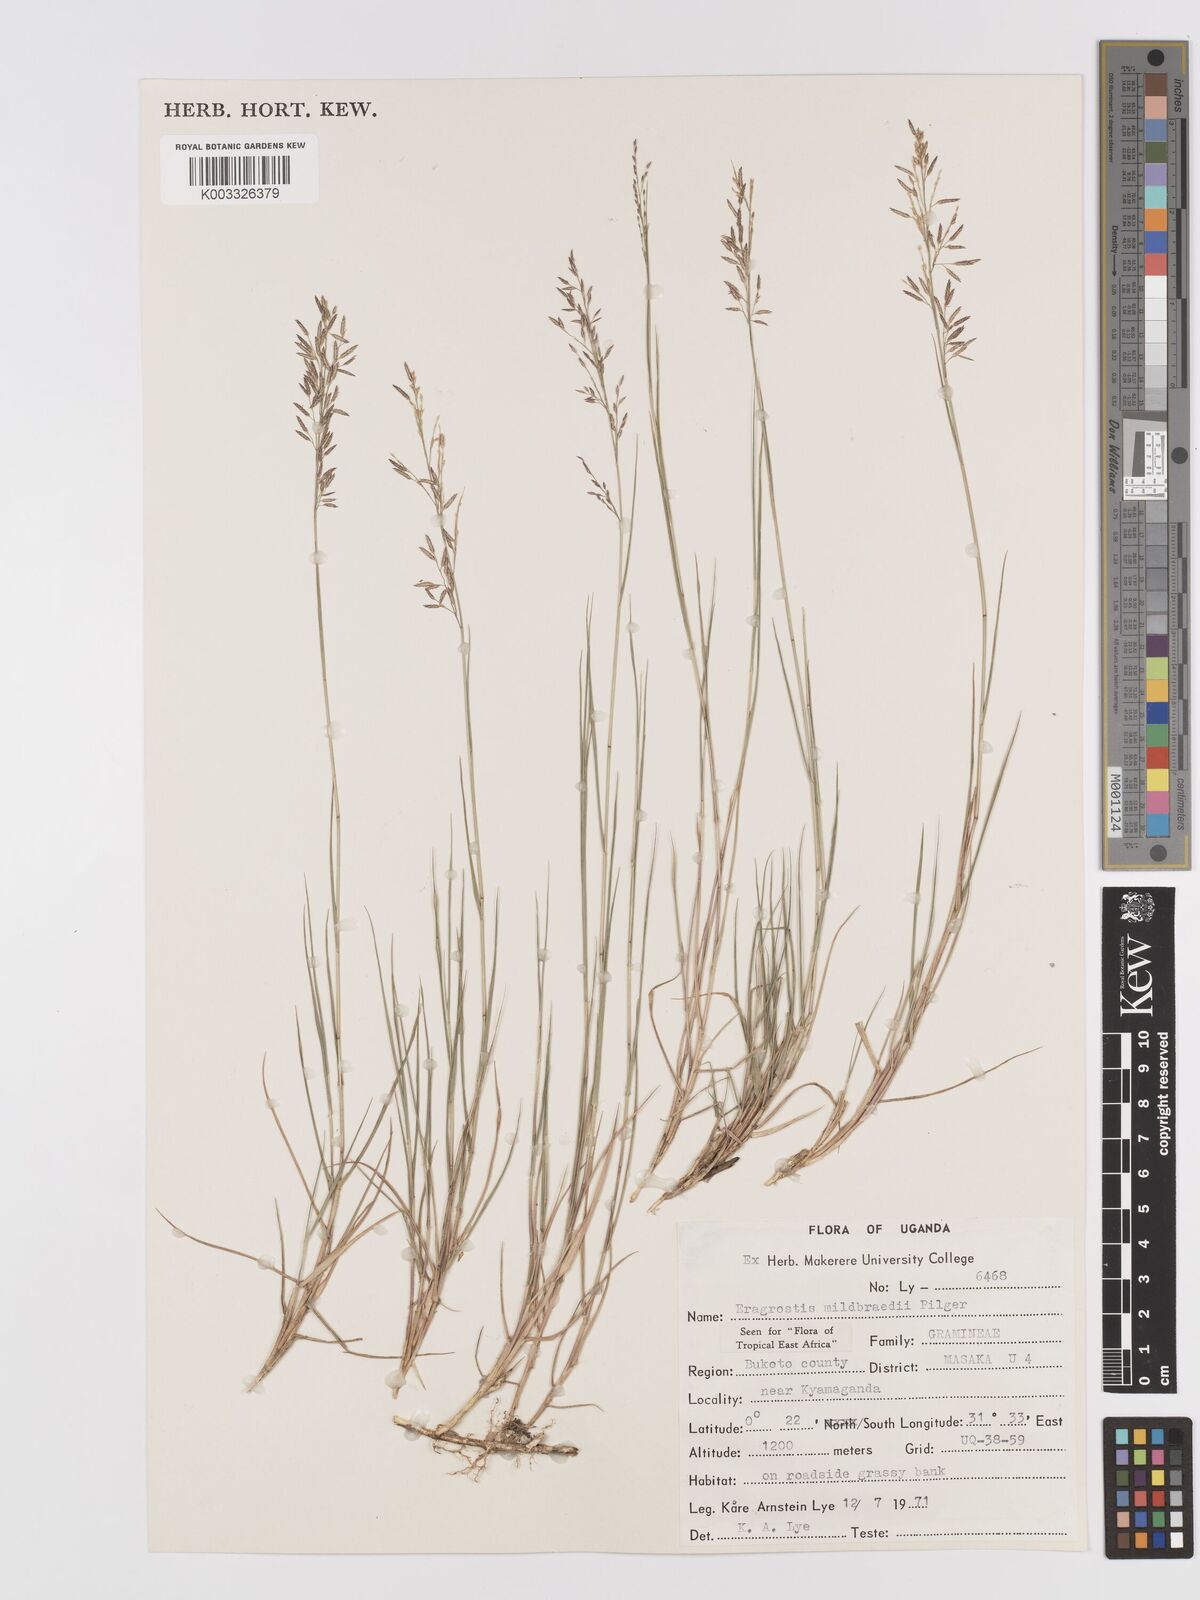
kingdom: Plantae
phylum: Tracheophyta
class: Liliopsida
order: Poales
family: Poaceae
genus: Eragrostis
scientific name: Eragrostis mildbraedii
